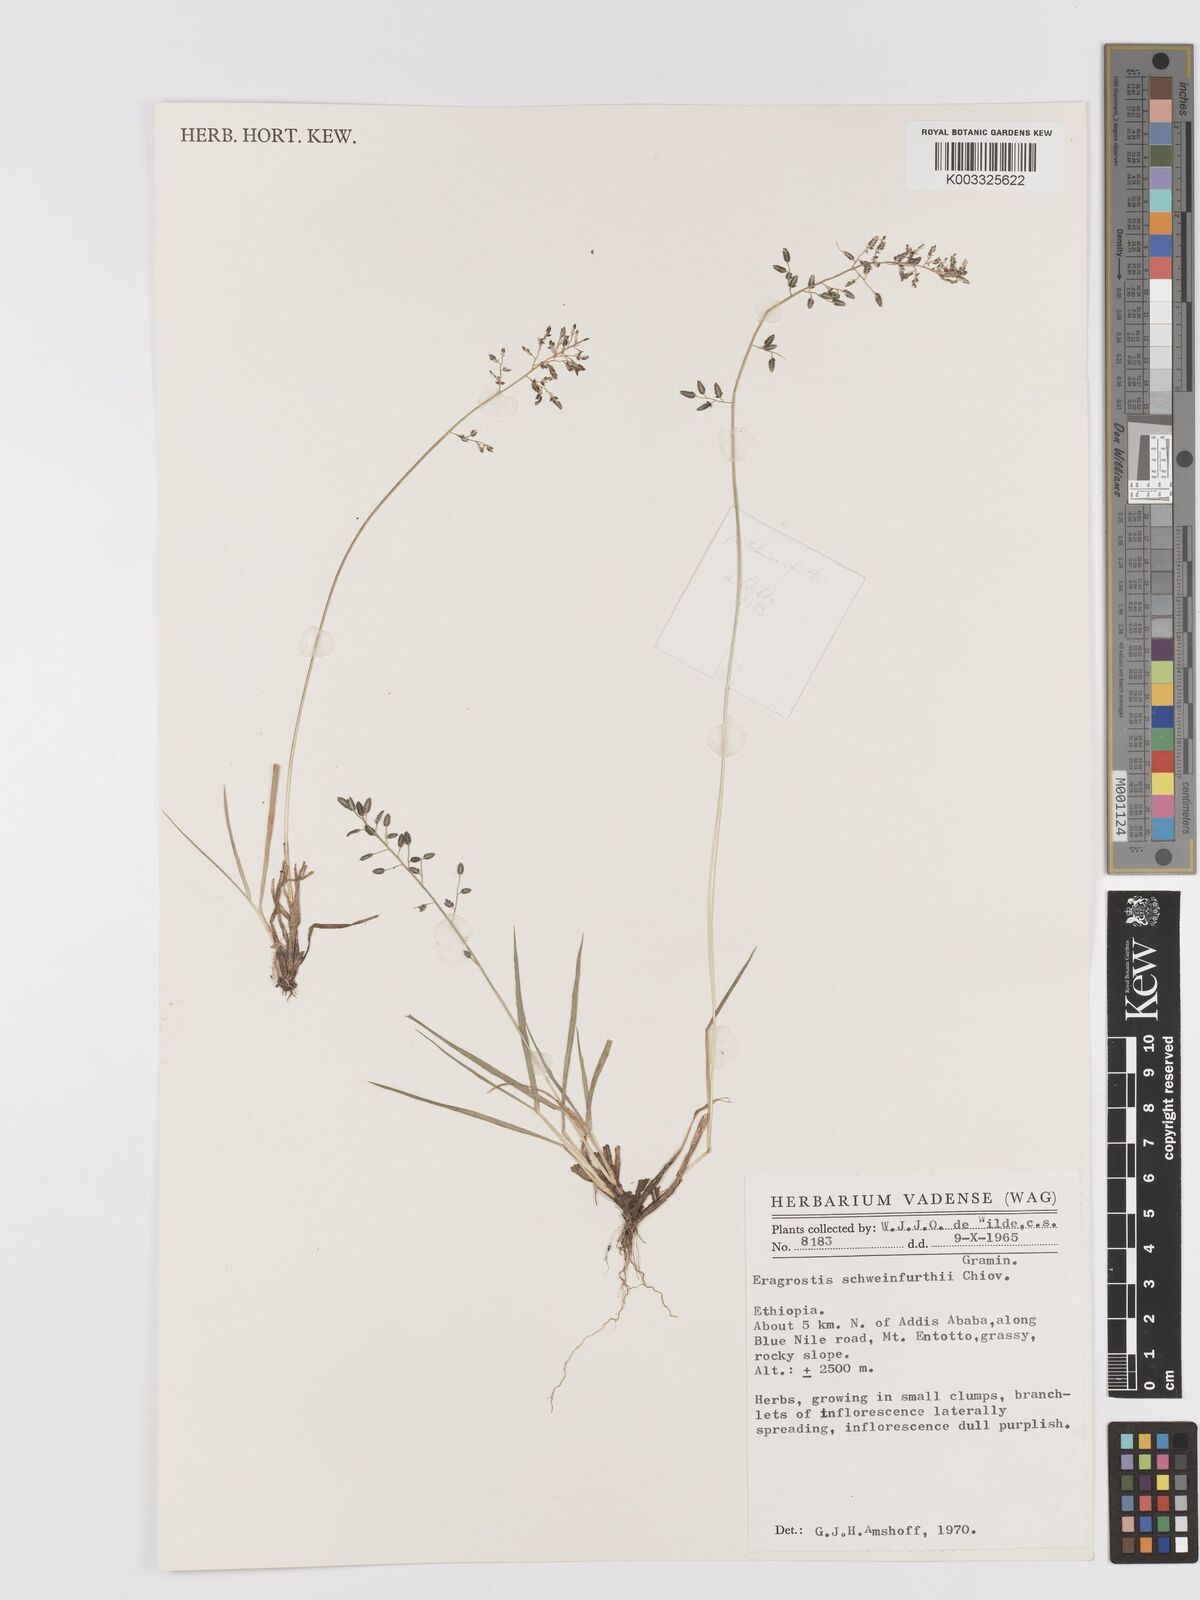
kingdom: Plantae
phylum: Tracheophyta
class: Liliopsida
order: Poales
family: Poaceae
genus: Eragrostis
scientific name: Eragrostis schweinfurthii
